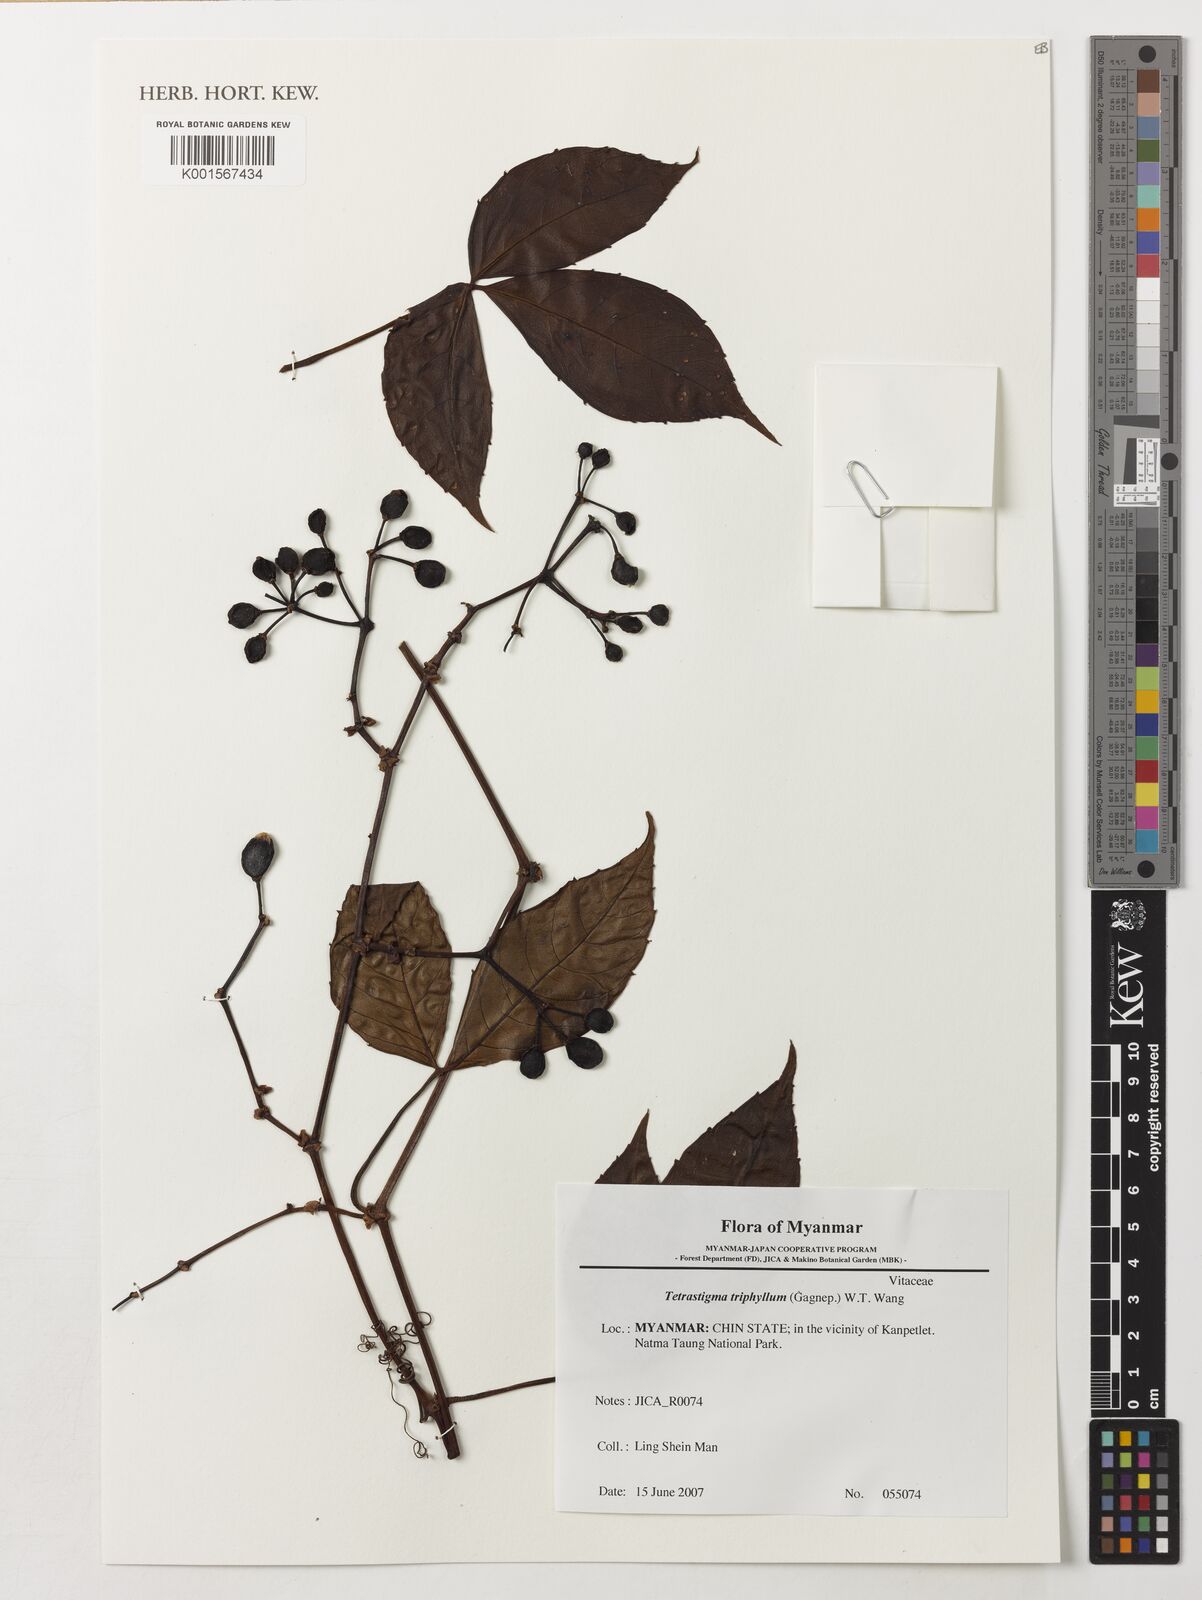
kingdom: Plantae
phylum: Tracheophyta
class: Magnoliopsida
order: Vitales
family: Vitaceae
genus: Tetrastigma
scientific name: Tetrastigma triphyllum
